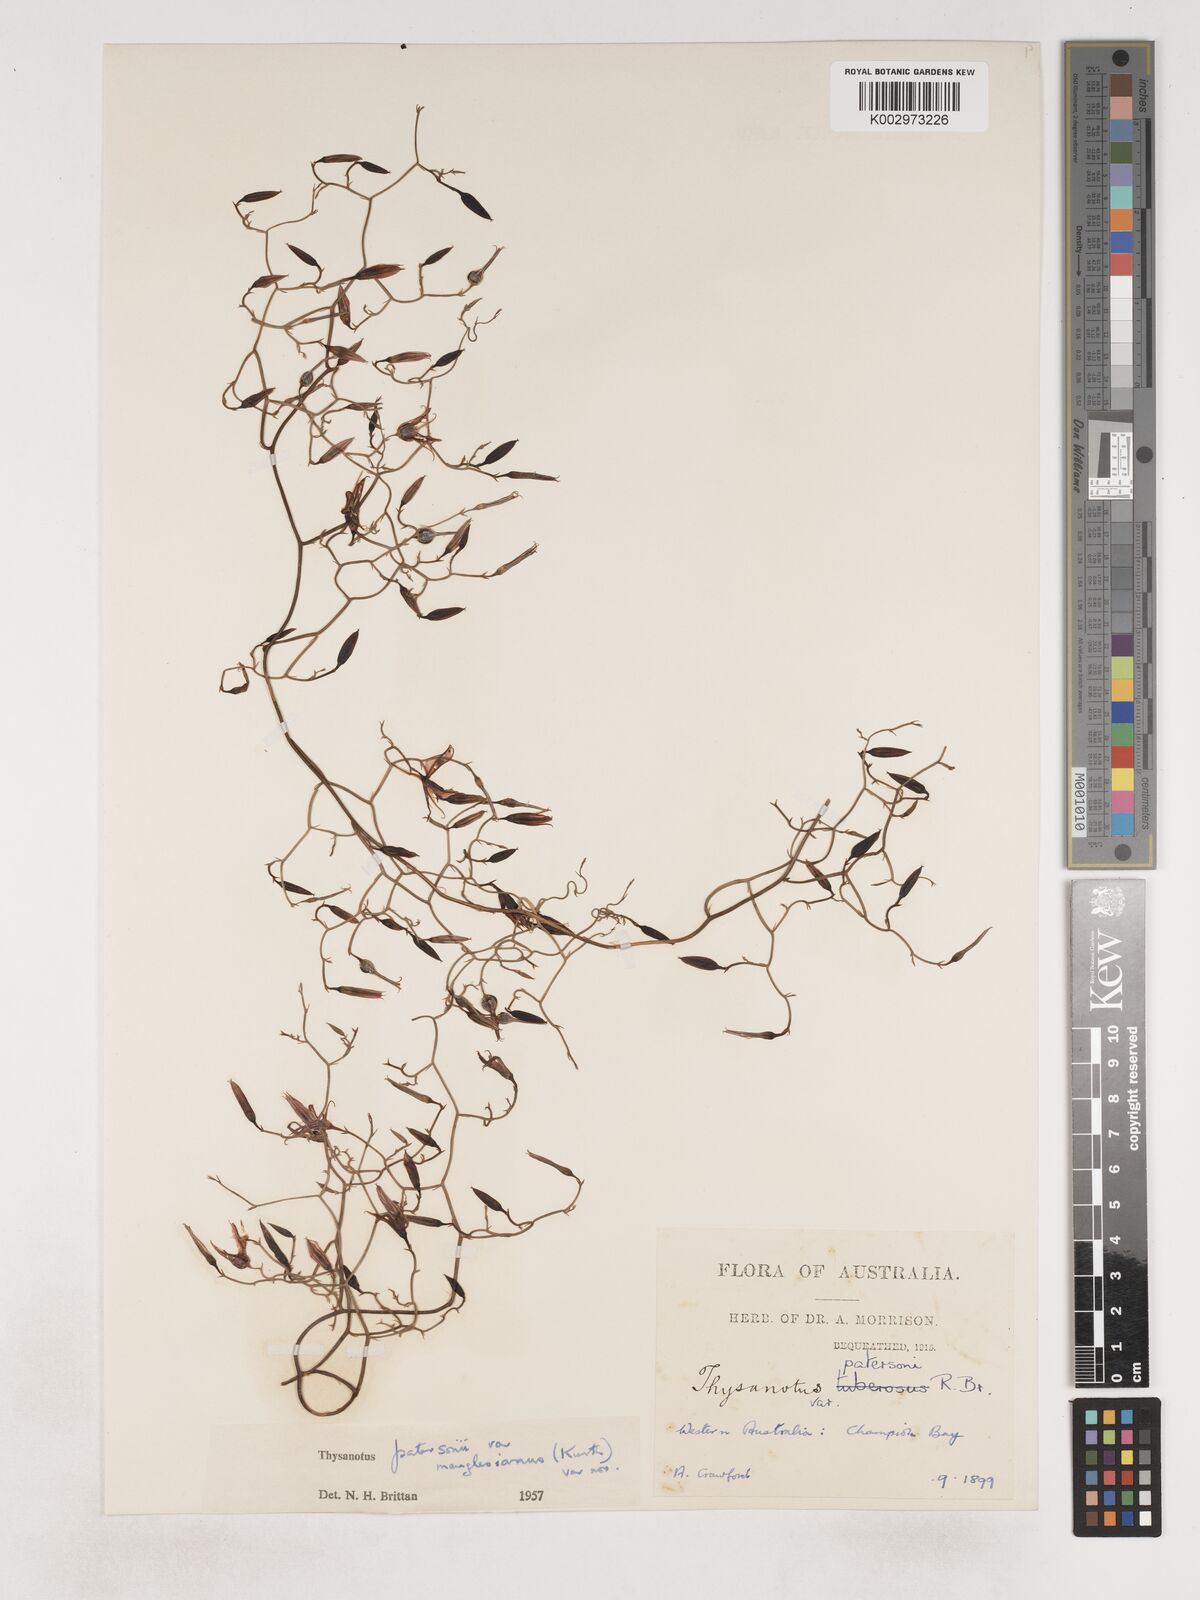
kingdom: Plantae
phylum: Tracheophyta
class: Liliopsida
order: Asparagales
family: Asparagaceae
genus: Thysanotus
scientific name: Thysanotus manglesianus
